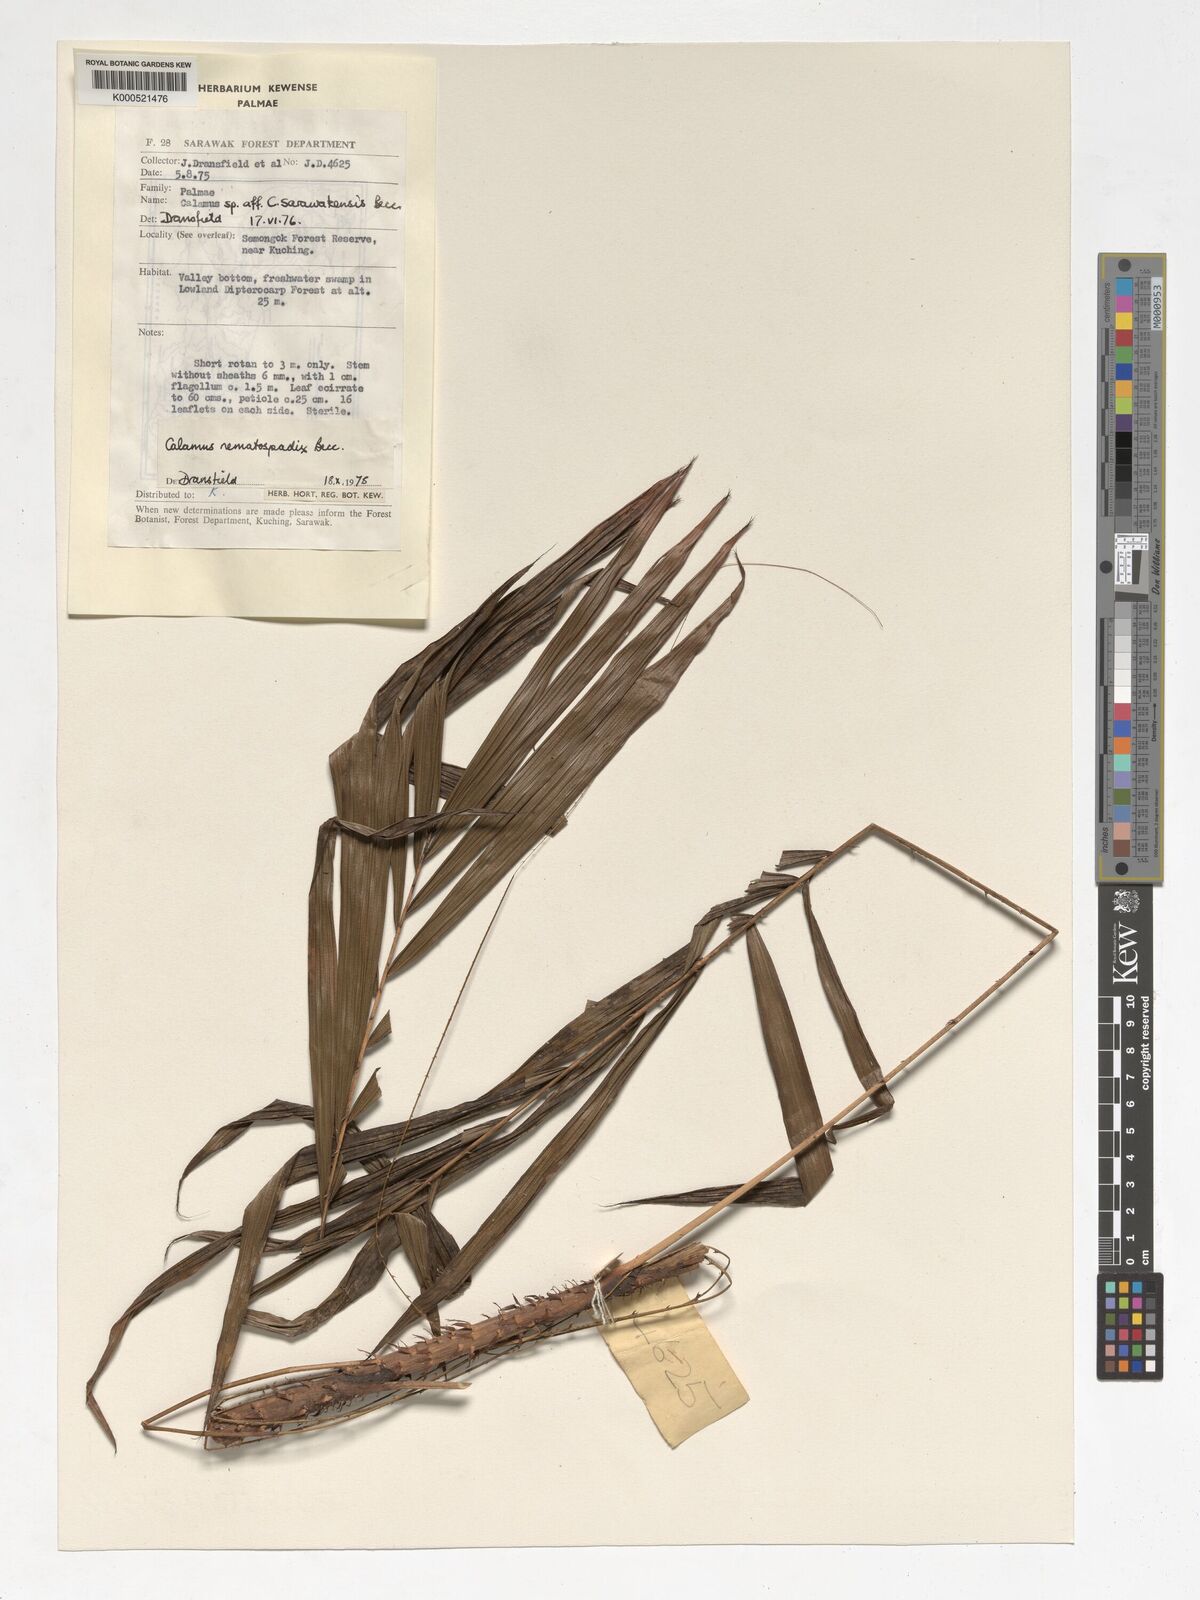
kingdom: Plantae
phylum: Tracheophyta
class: Liliopsida
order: Arecales
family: Arecaceae
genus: Calamus
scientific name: Calamus nematospadix
